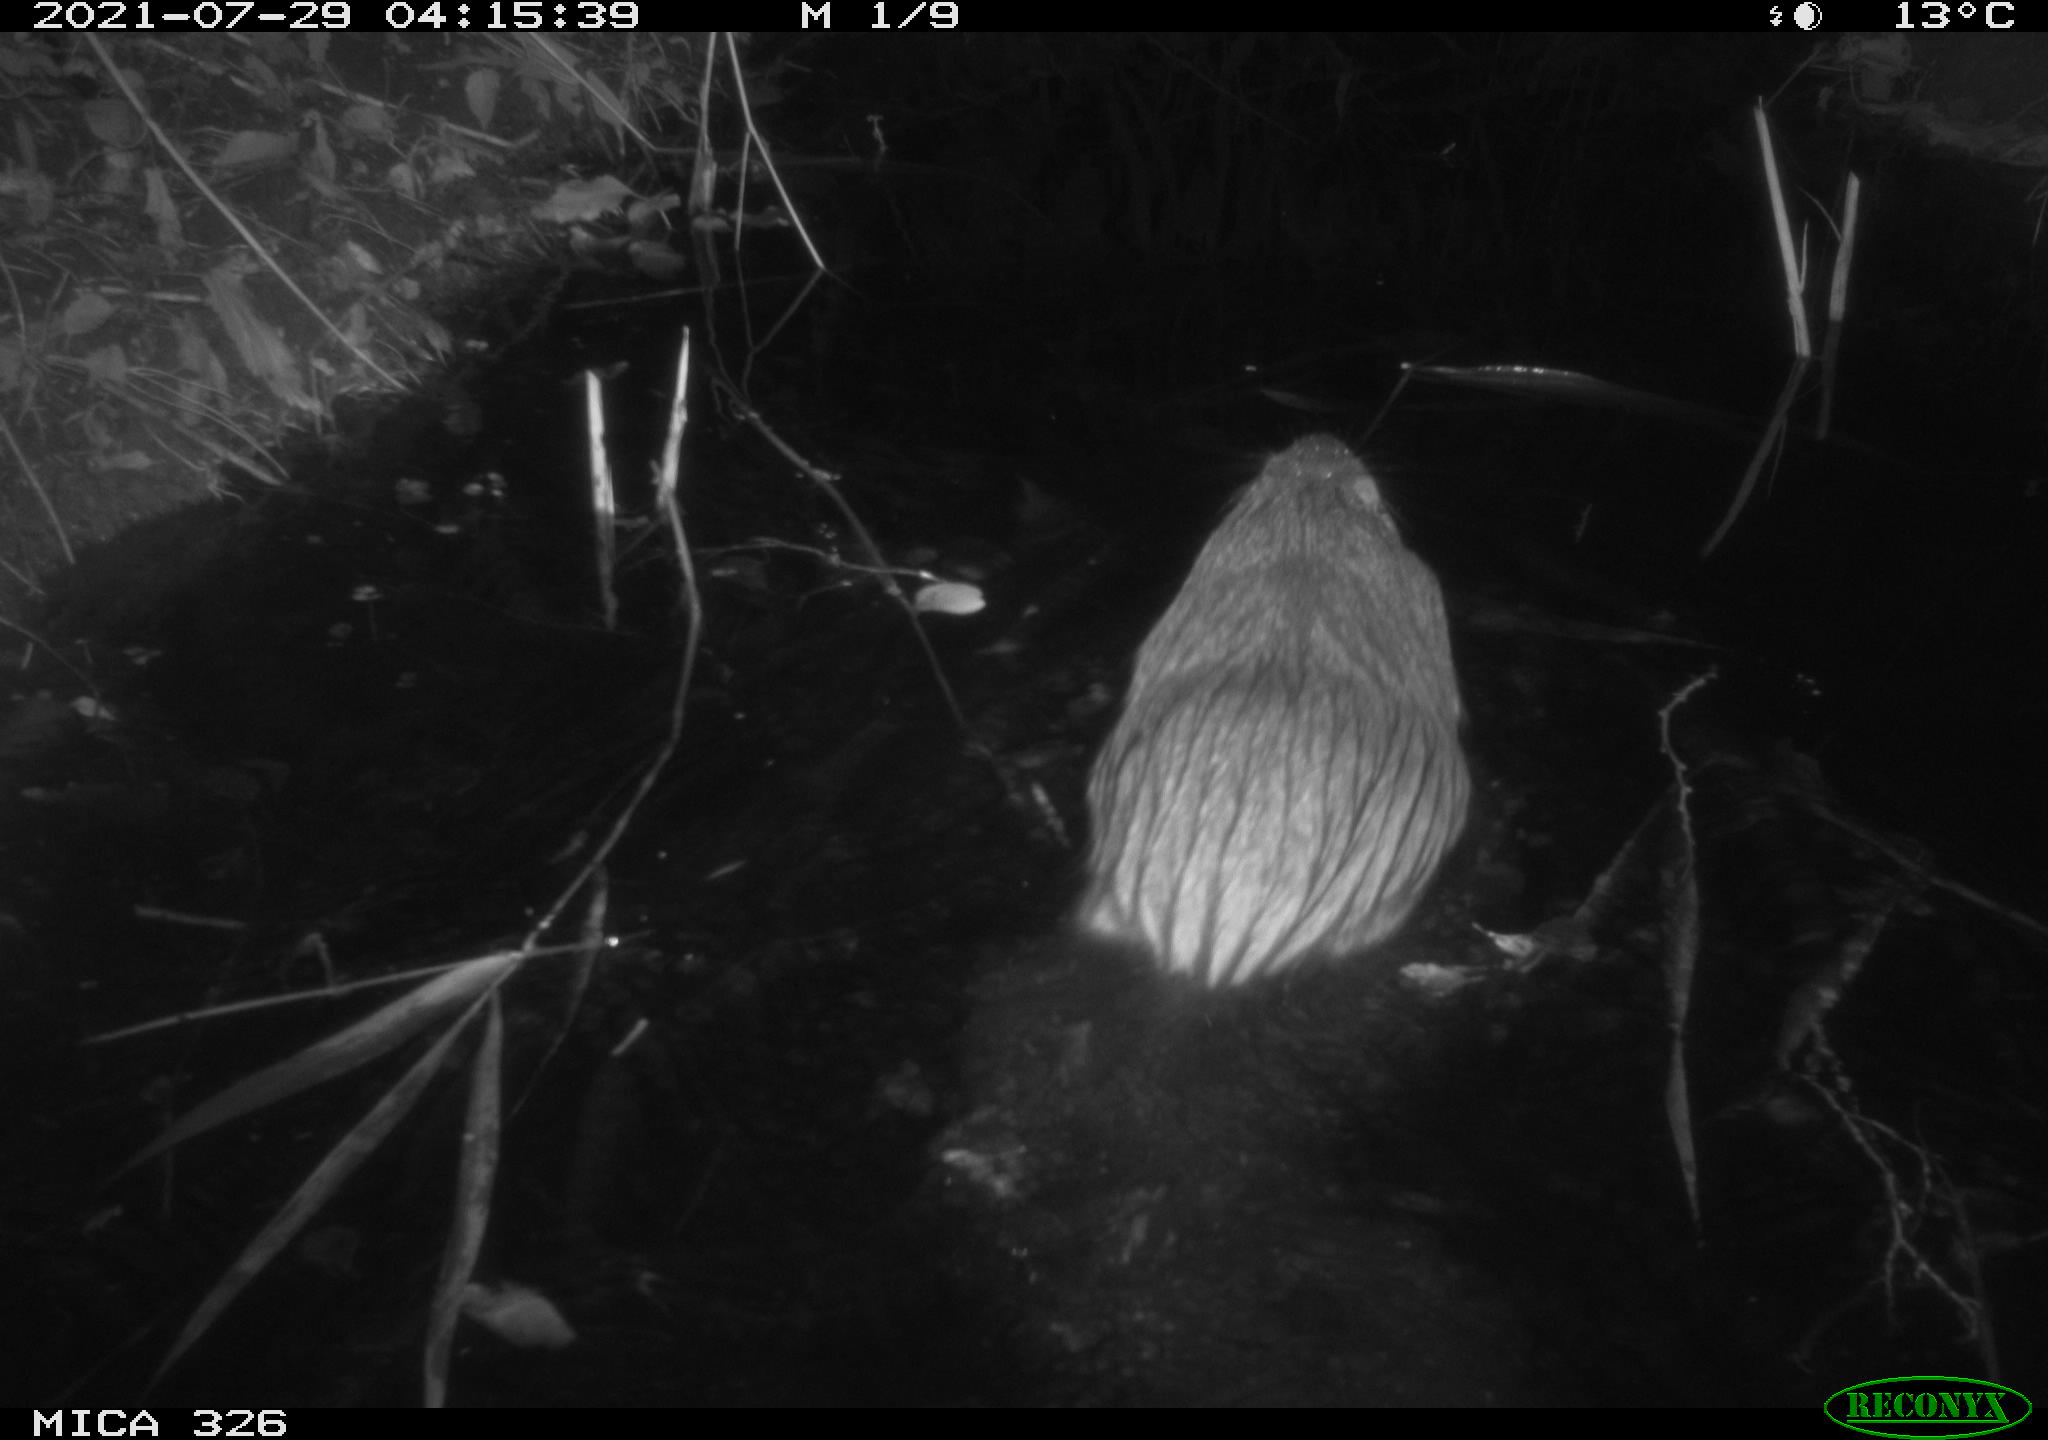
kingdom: Animalia
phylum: Chordata
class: Mammalia
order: Rodentia
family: Myocastoridae
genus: Myocastor
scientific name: Myocastor coypus
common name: Coypu
